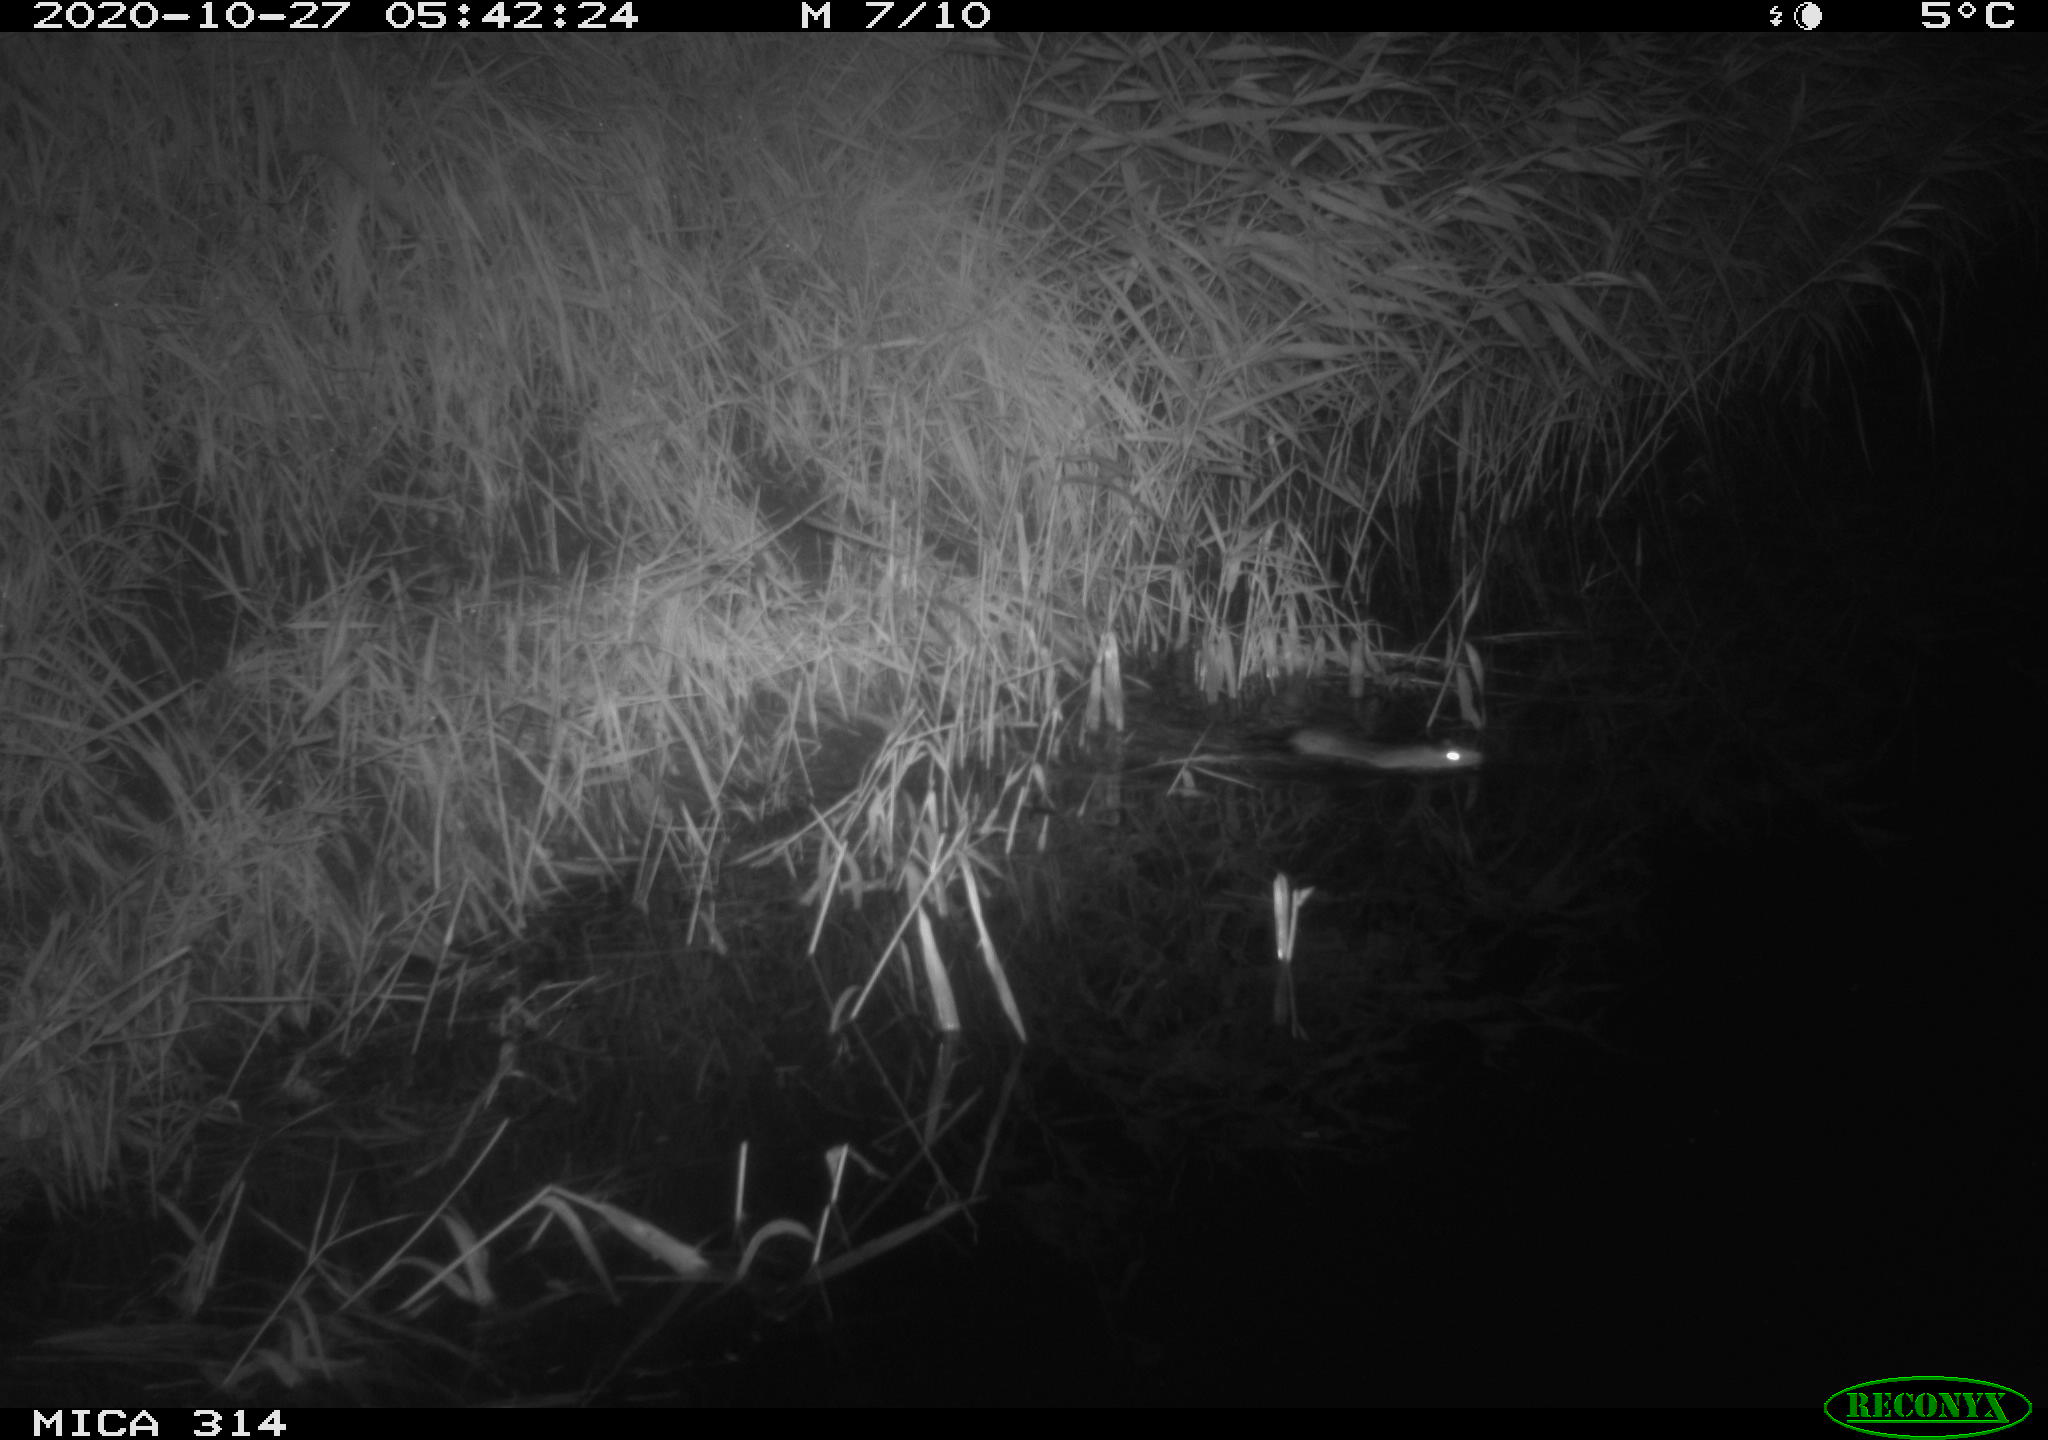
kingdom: Animalia
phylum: Chordata
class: Mammalia
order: Rodentia
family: Muridae
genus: Rattus
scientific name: Rattus norvegicus
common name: Brown rat
